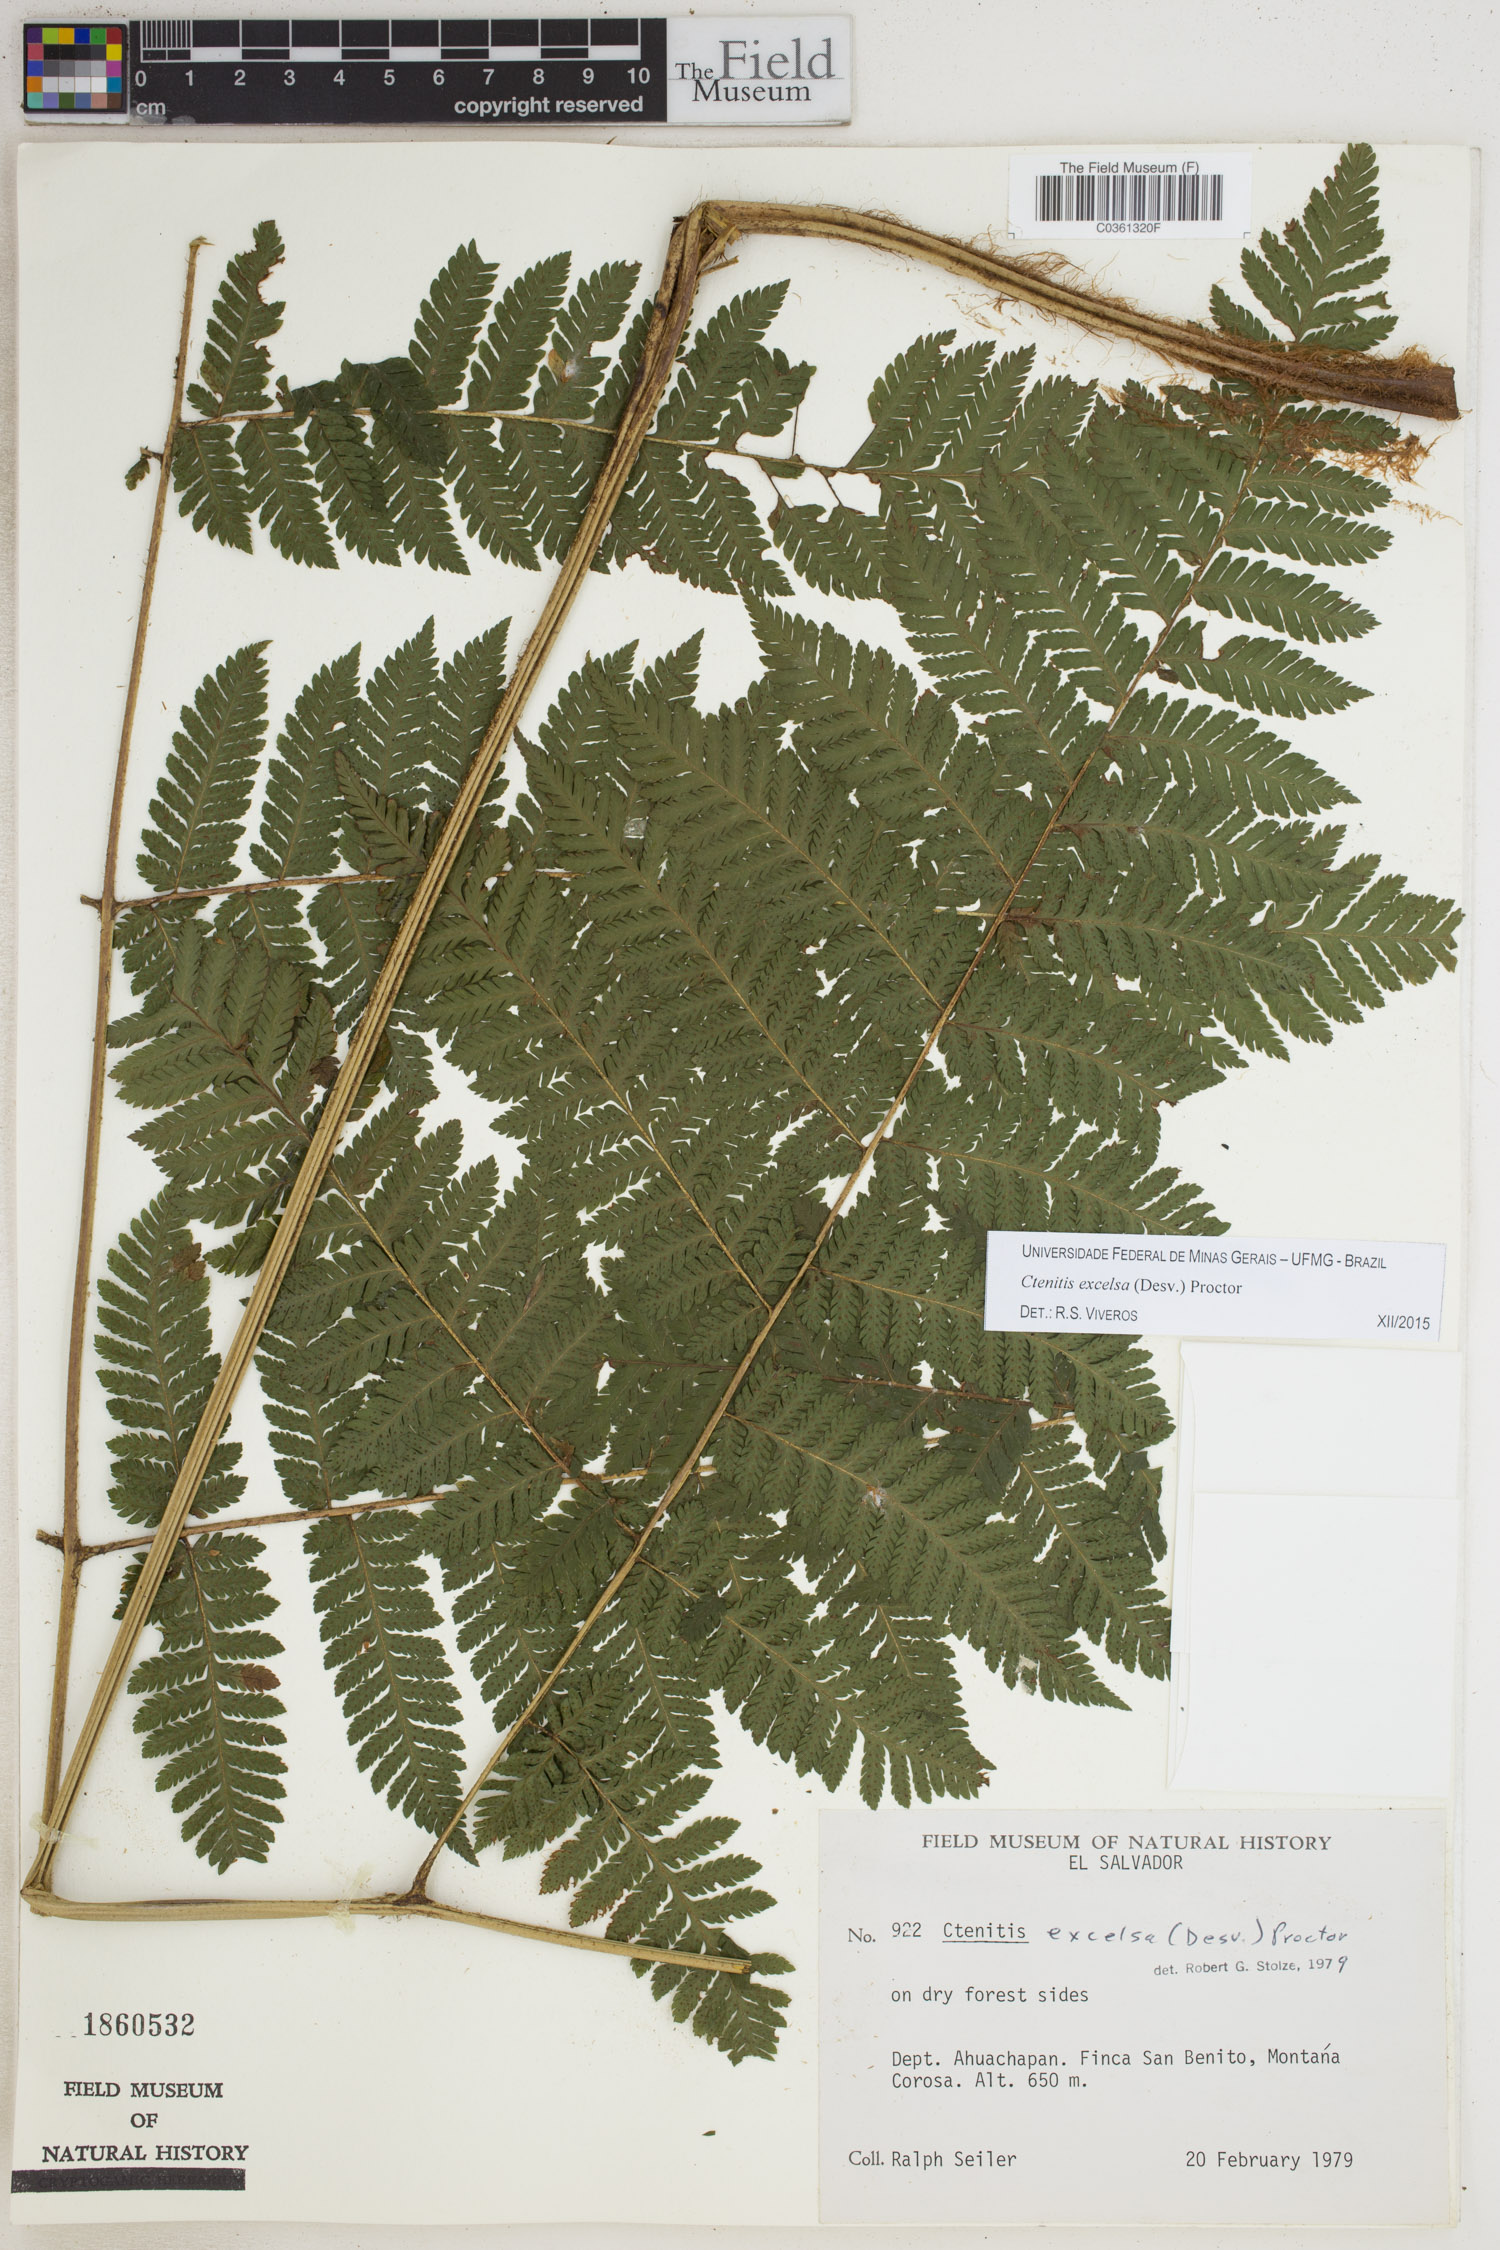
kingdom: Plantae
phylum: Tracheophyta
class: Polypodiopsida
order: Polypodiales
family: Dryopteridaceae
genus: Ctenitis
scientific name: Ctenitis excelsa
